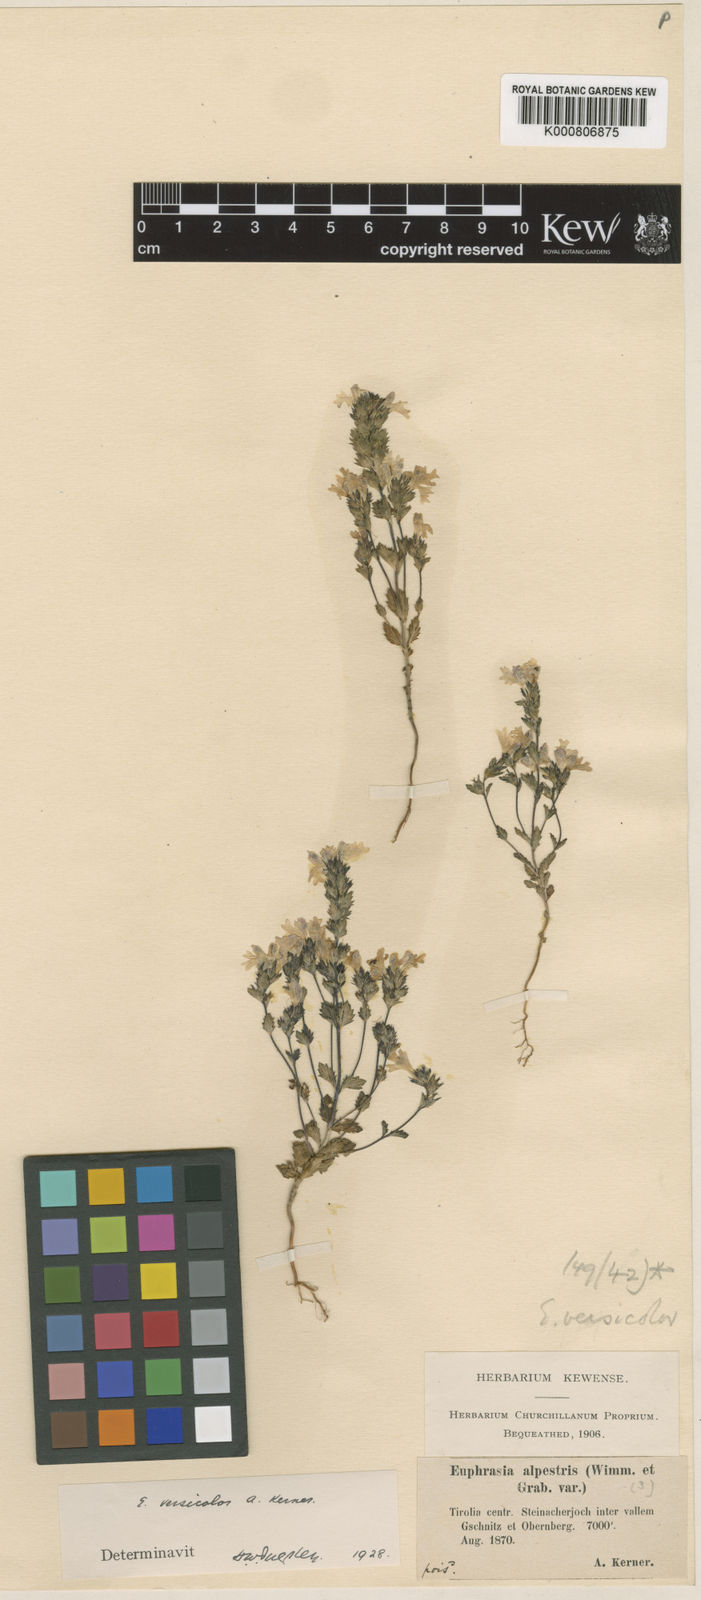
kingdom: Plantae
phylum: Tracheophyta
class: Magnoliopsida
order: Lamiales
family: Orobanchaceae
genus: Euphrasia
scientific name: Euphrasia picta
